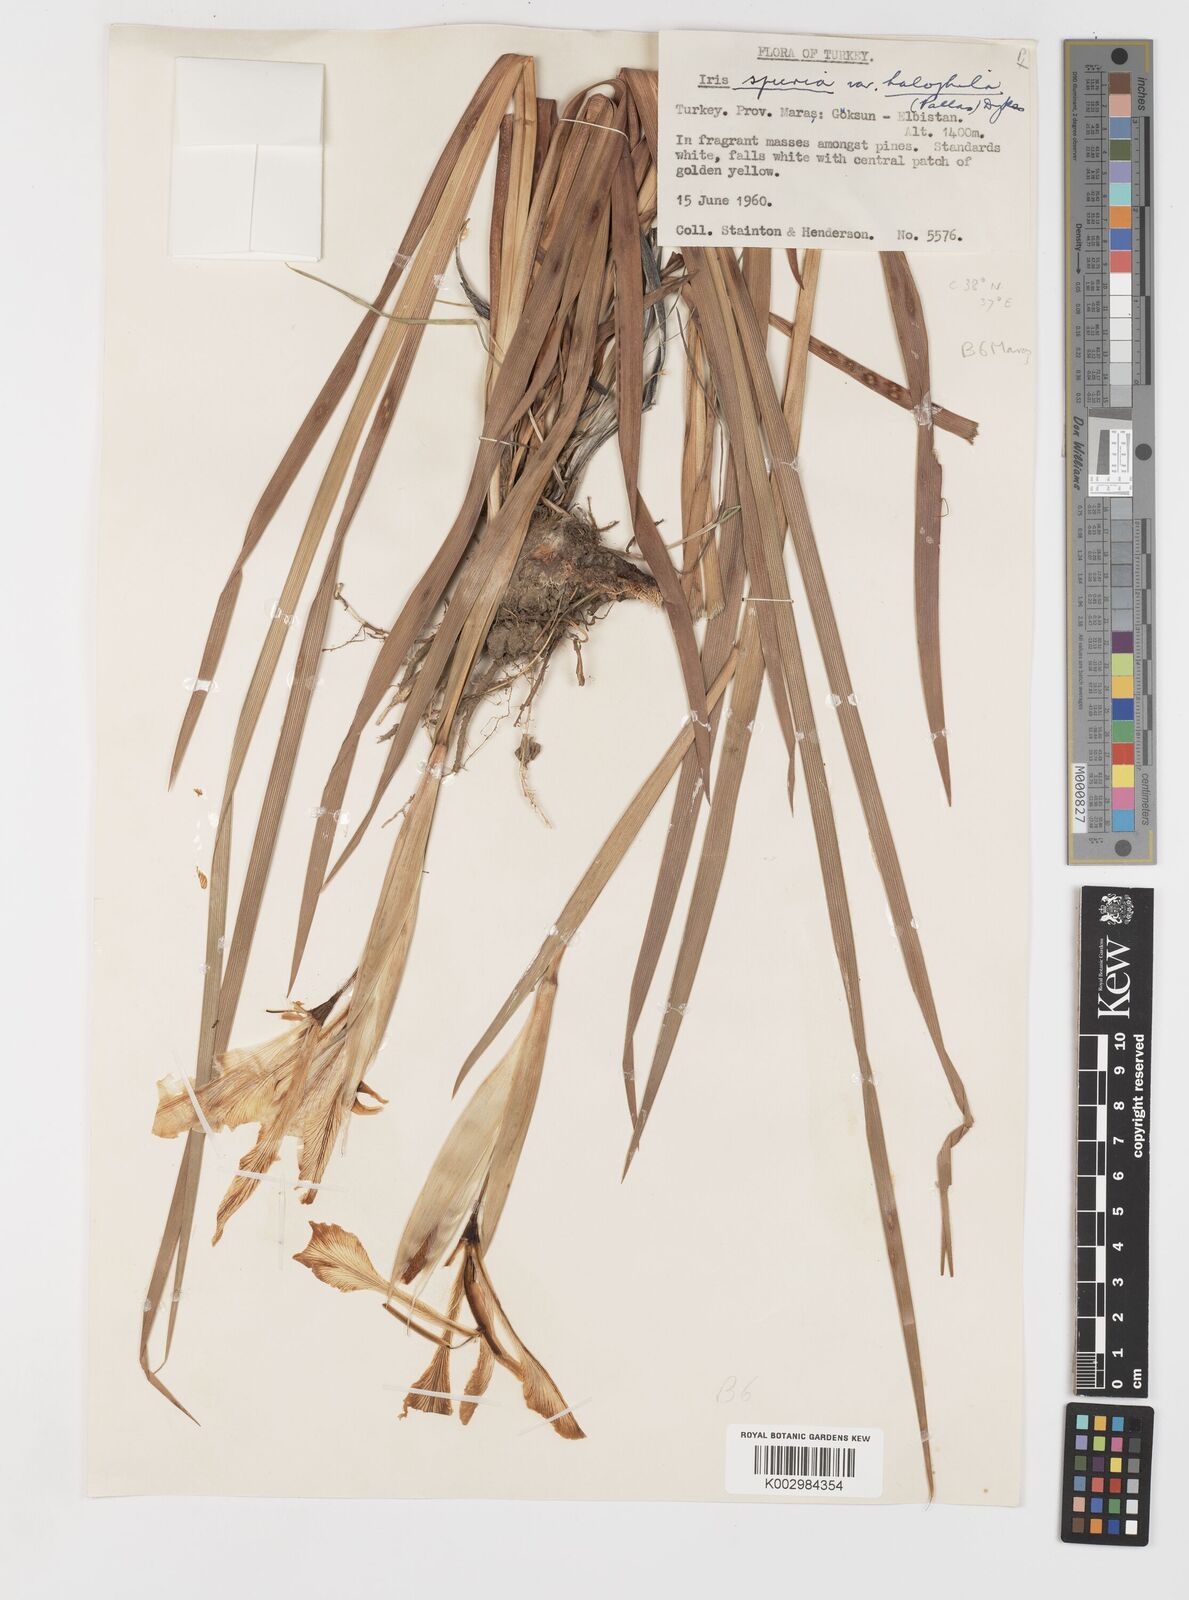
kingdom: Plantae
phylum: Tracheophyta
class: Liliopsida
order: Asparagales
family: Iridaceae
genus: Iris
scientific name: Iris orientalis
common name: Turkish iris
